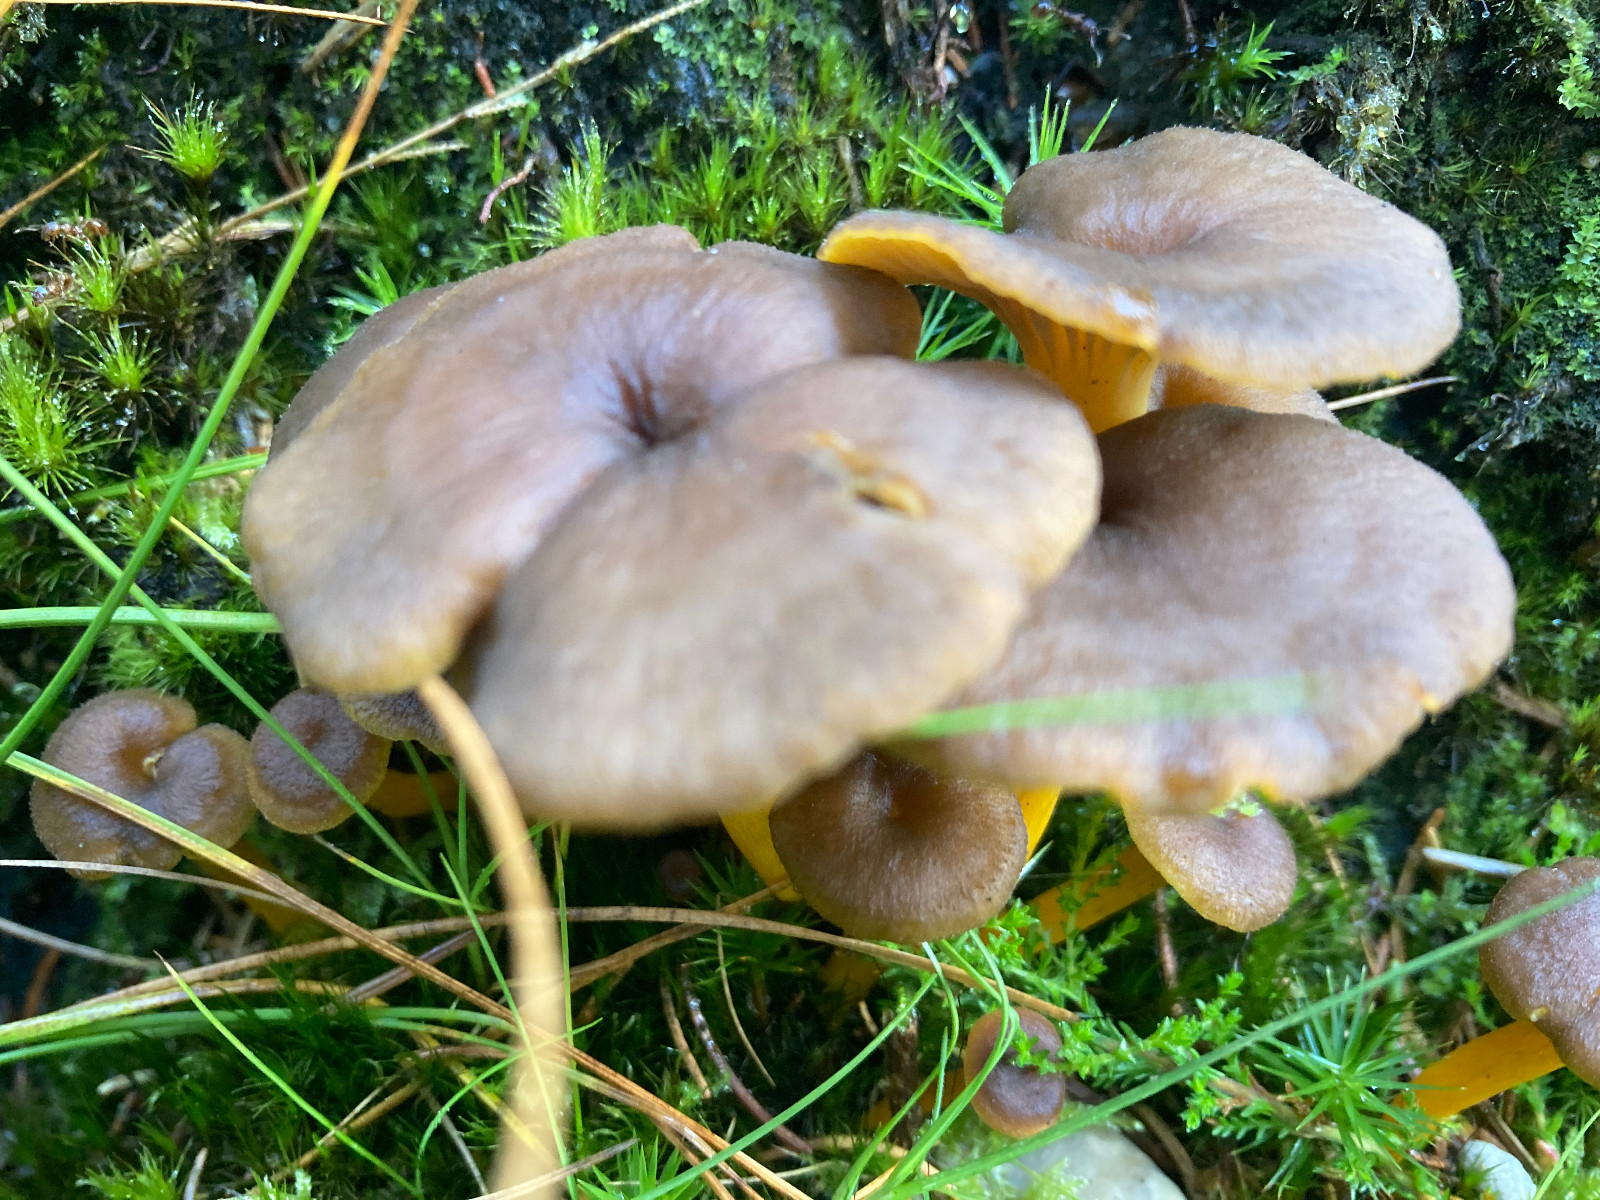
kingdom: Fungi
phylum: Basidiomycota
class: Agaricomycetes
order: Cantharellales
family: Hydnaceae
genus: Craterellus
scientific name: Craterellus tubaeformis
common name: tragt-kantarel
